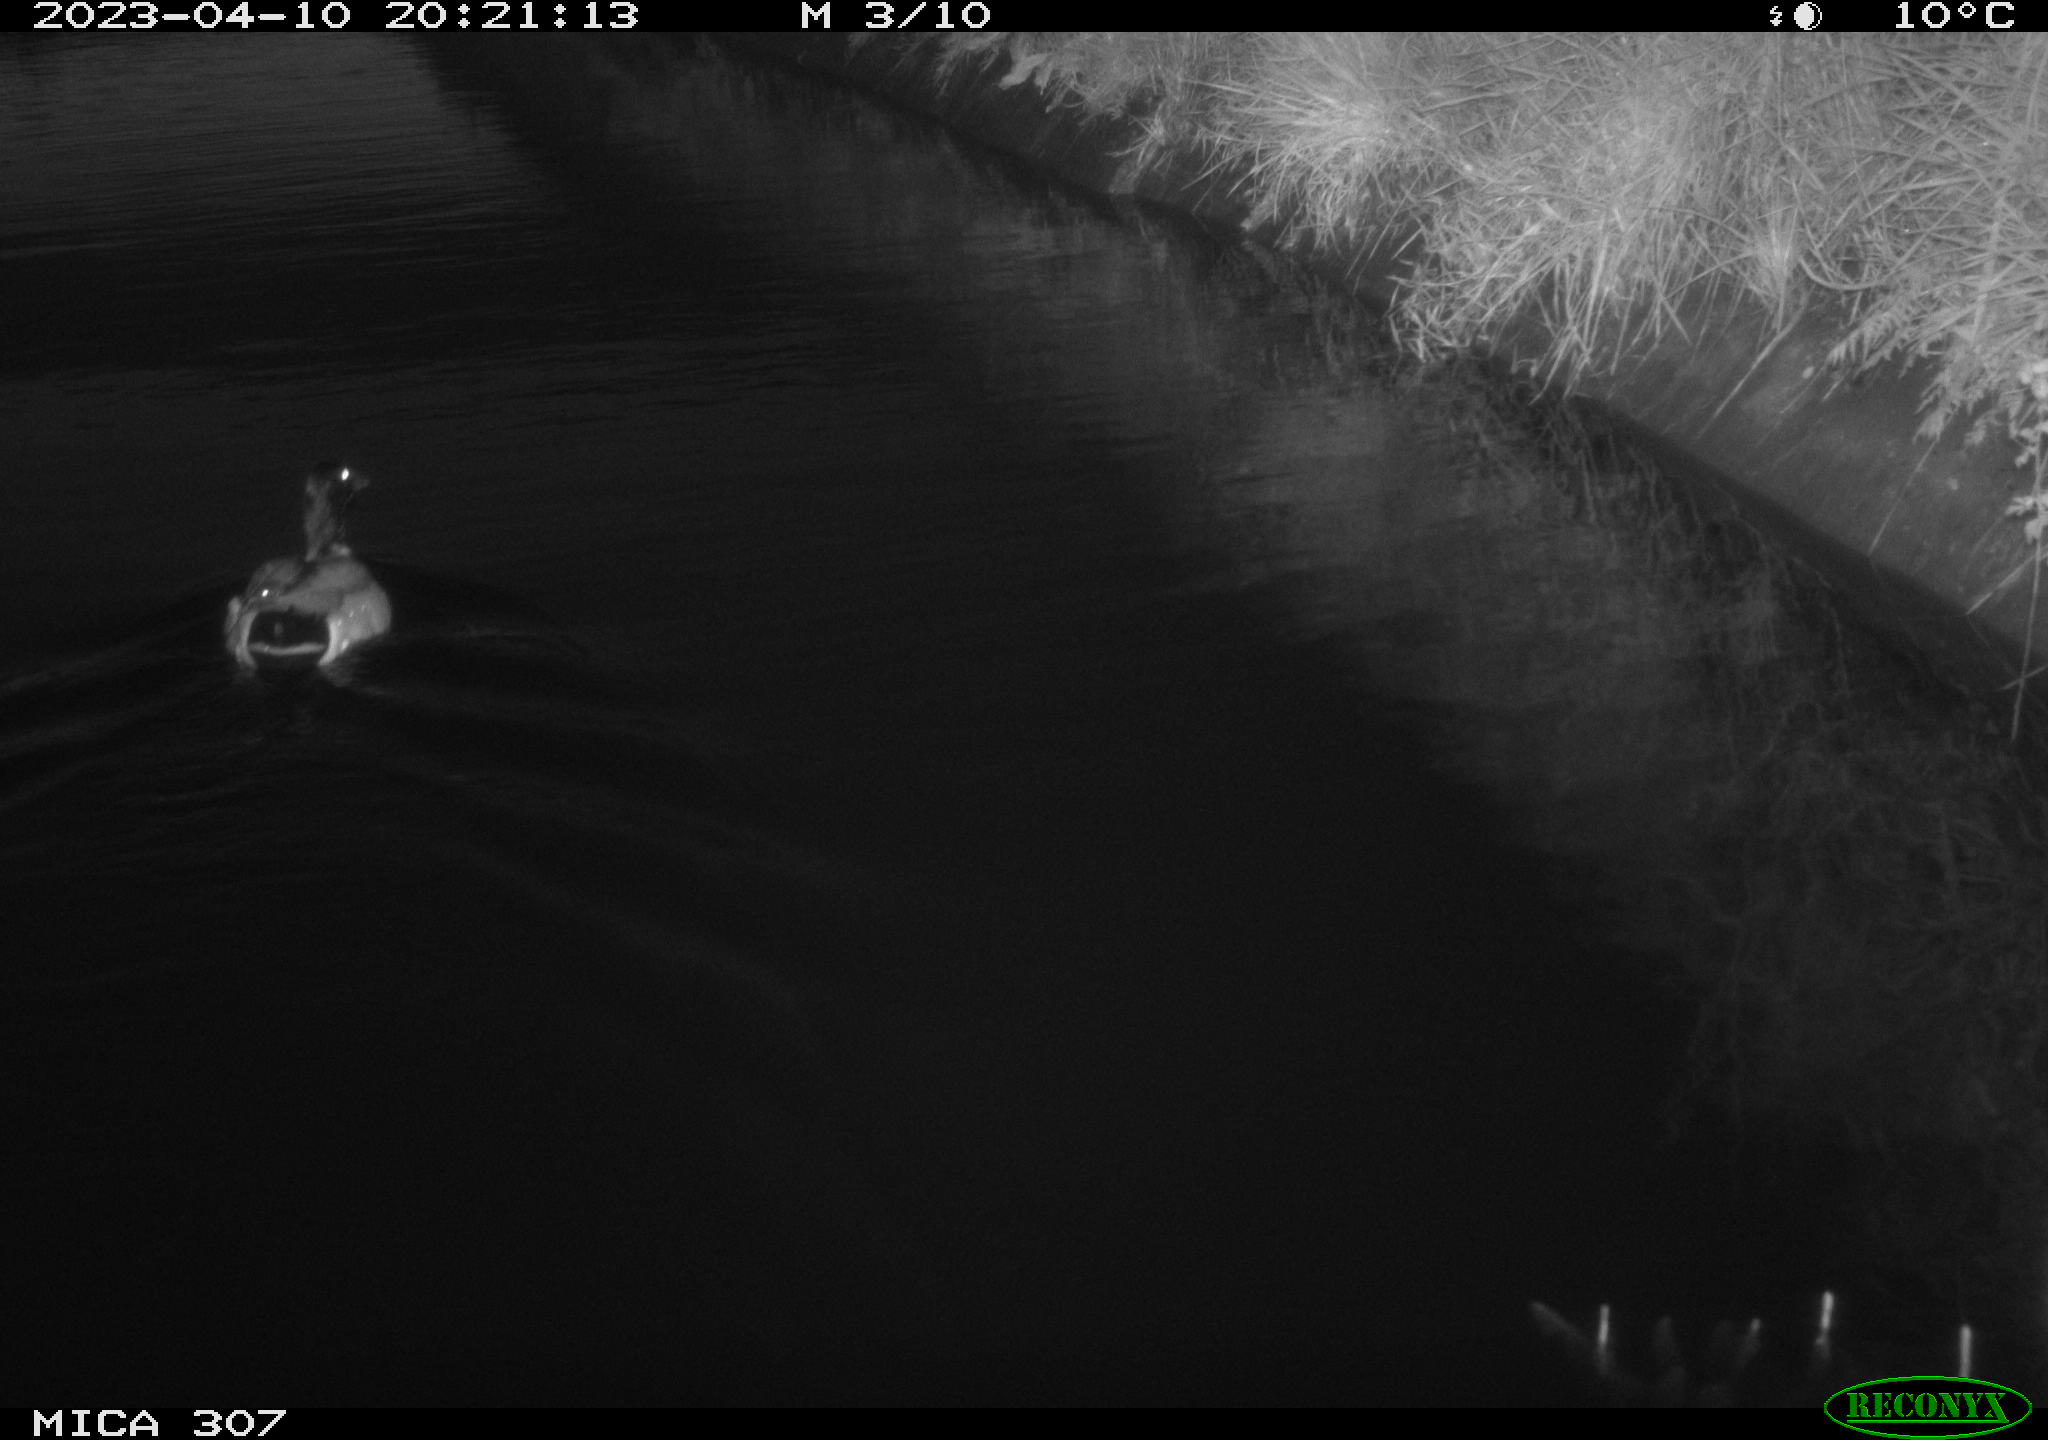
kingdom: Animalia
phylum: Chordata
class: Aves
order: Anseriformes
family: Anatidae
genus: Anas
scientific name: Anas
